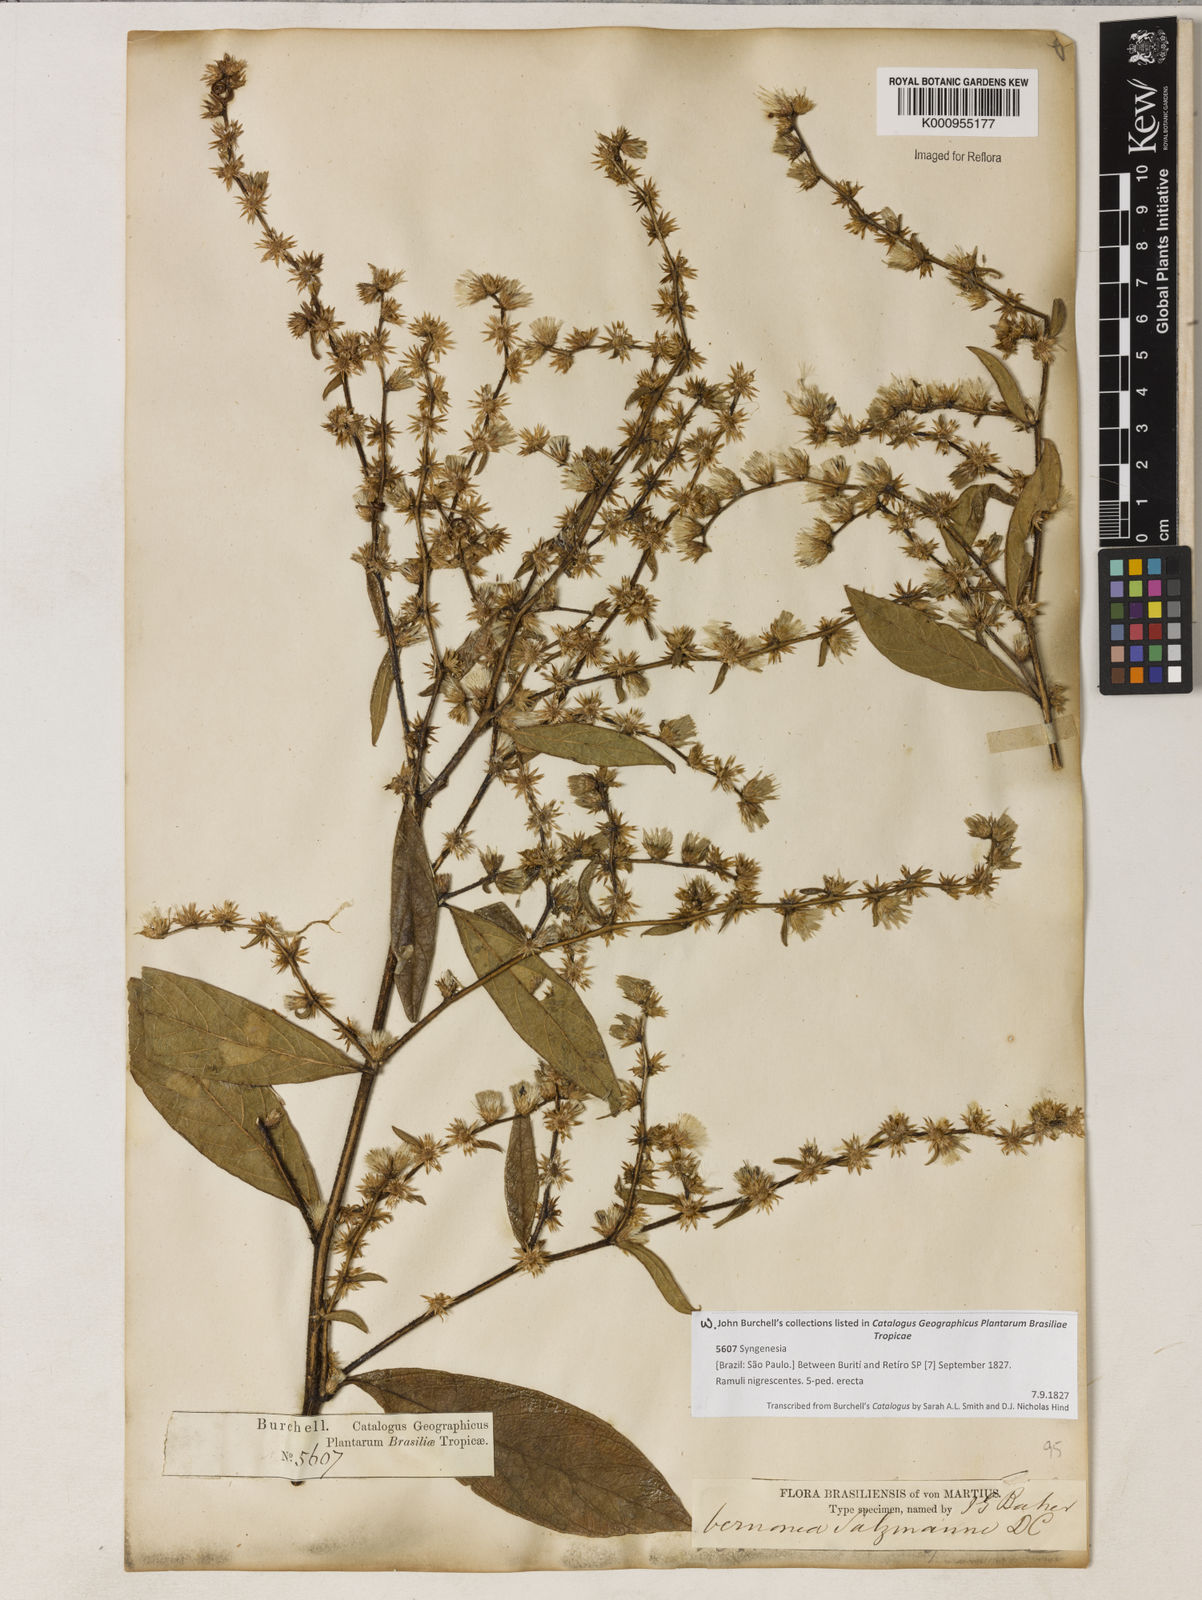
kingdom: Plantae
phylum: Tracheophyta
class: Magnoliopsida
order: Asterales
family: Asteraceae
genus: Lepidaploa
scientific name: Lepidaploa salzmannii
